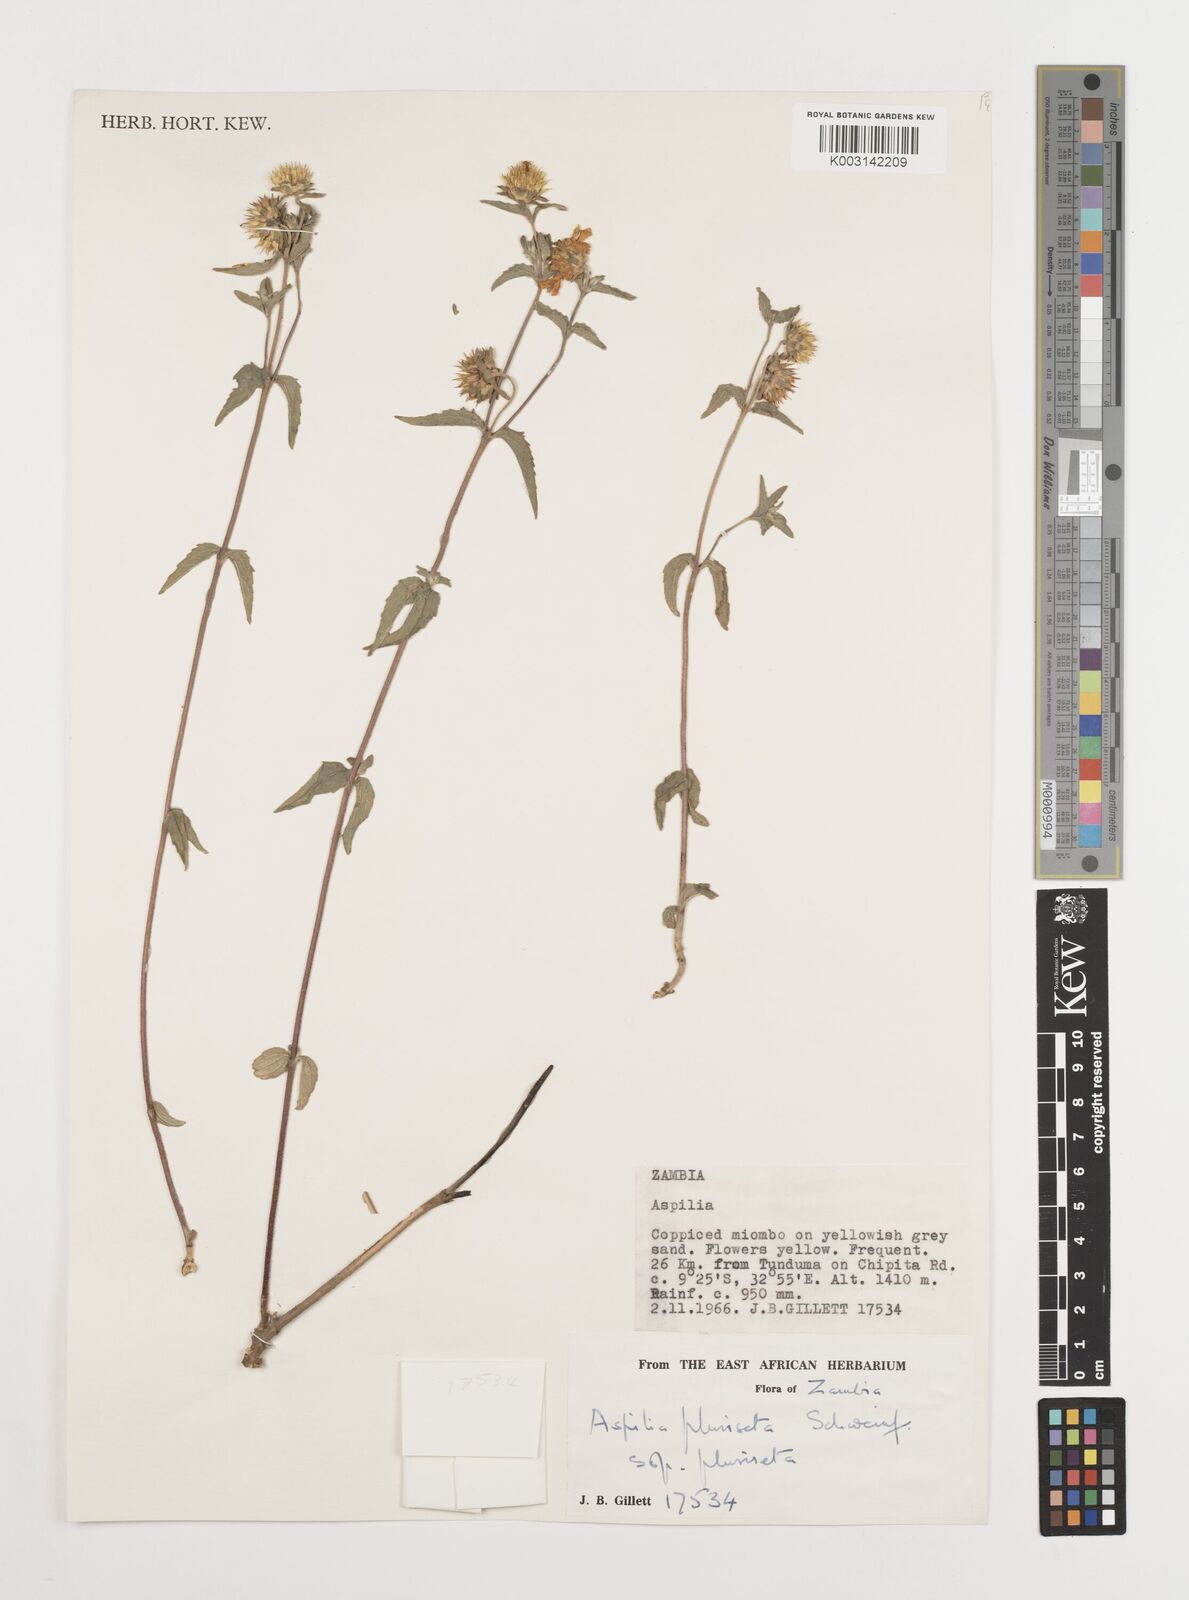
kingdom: Plantae
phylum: Tracheophyta
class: Magnoliopsida
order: Asterales
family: Asteraceae
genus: Aspilia
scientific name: Aspilia pluriseta
